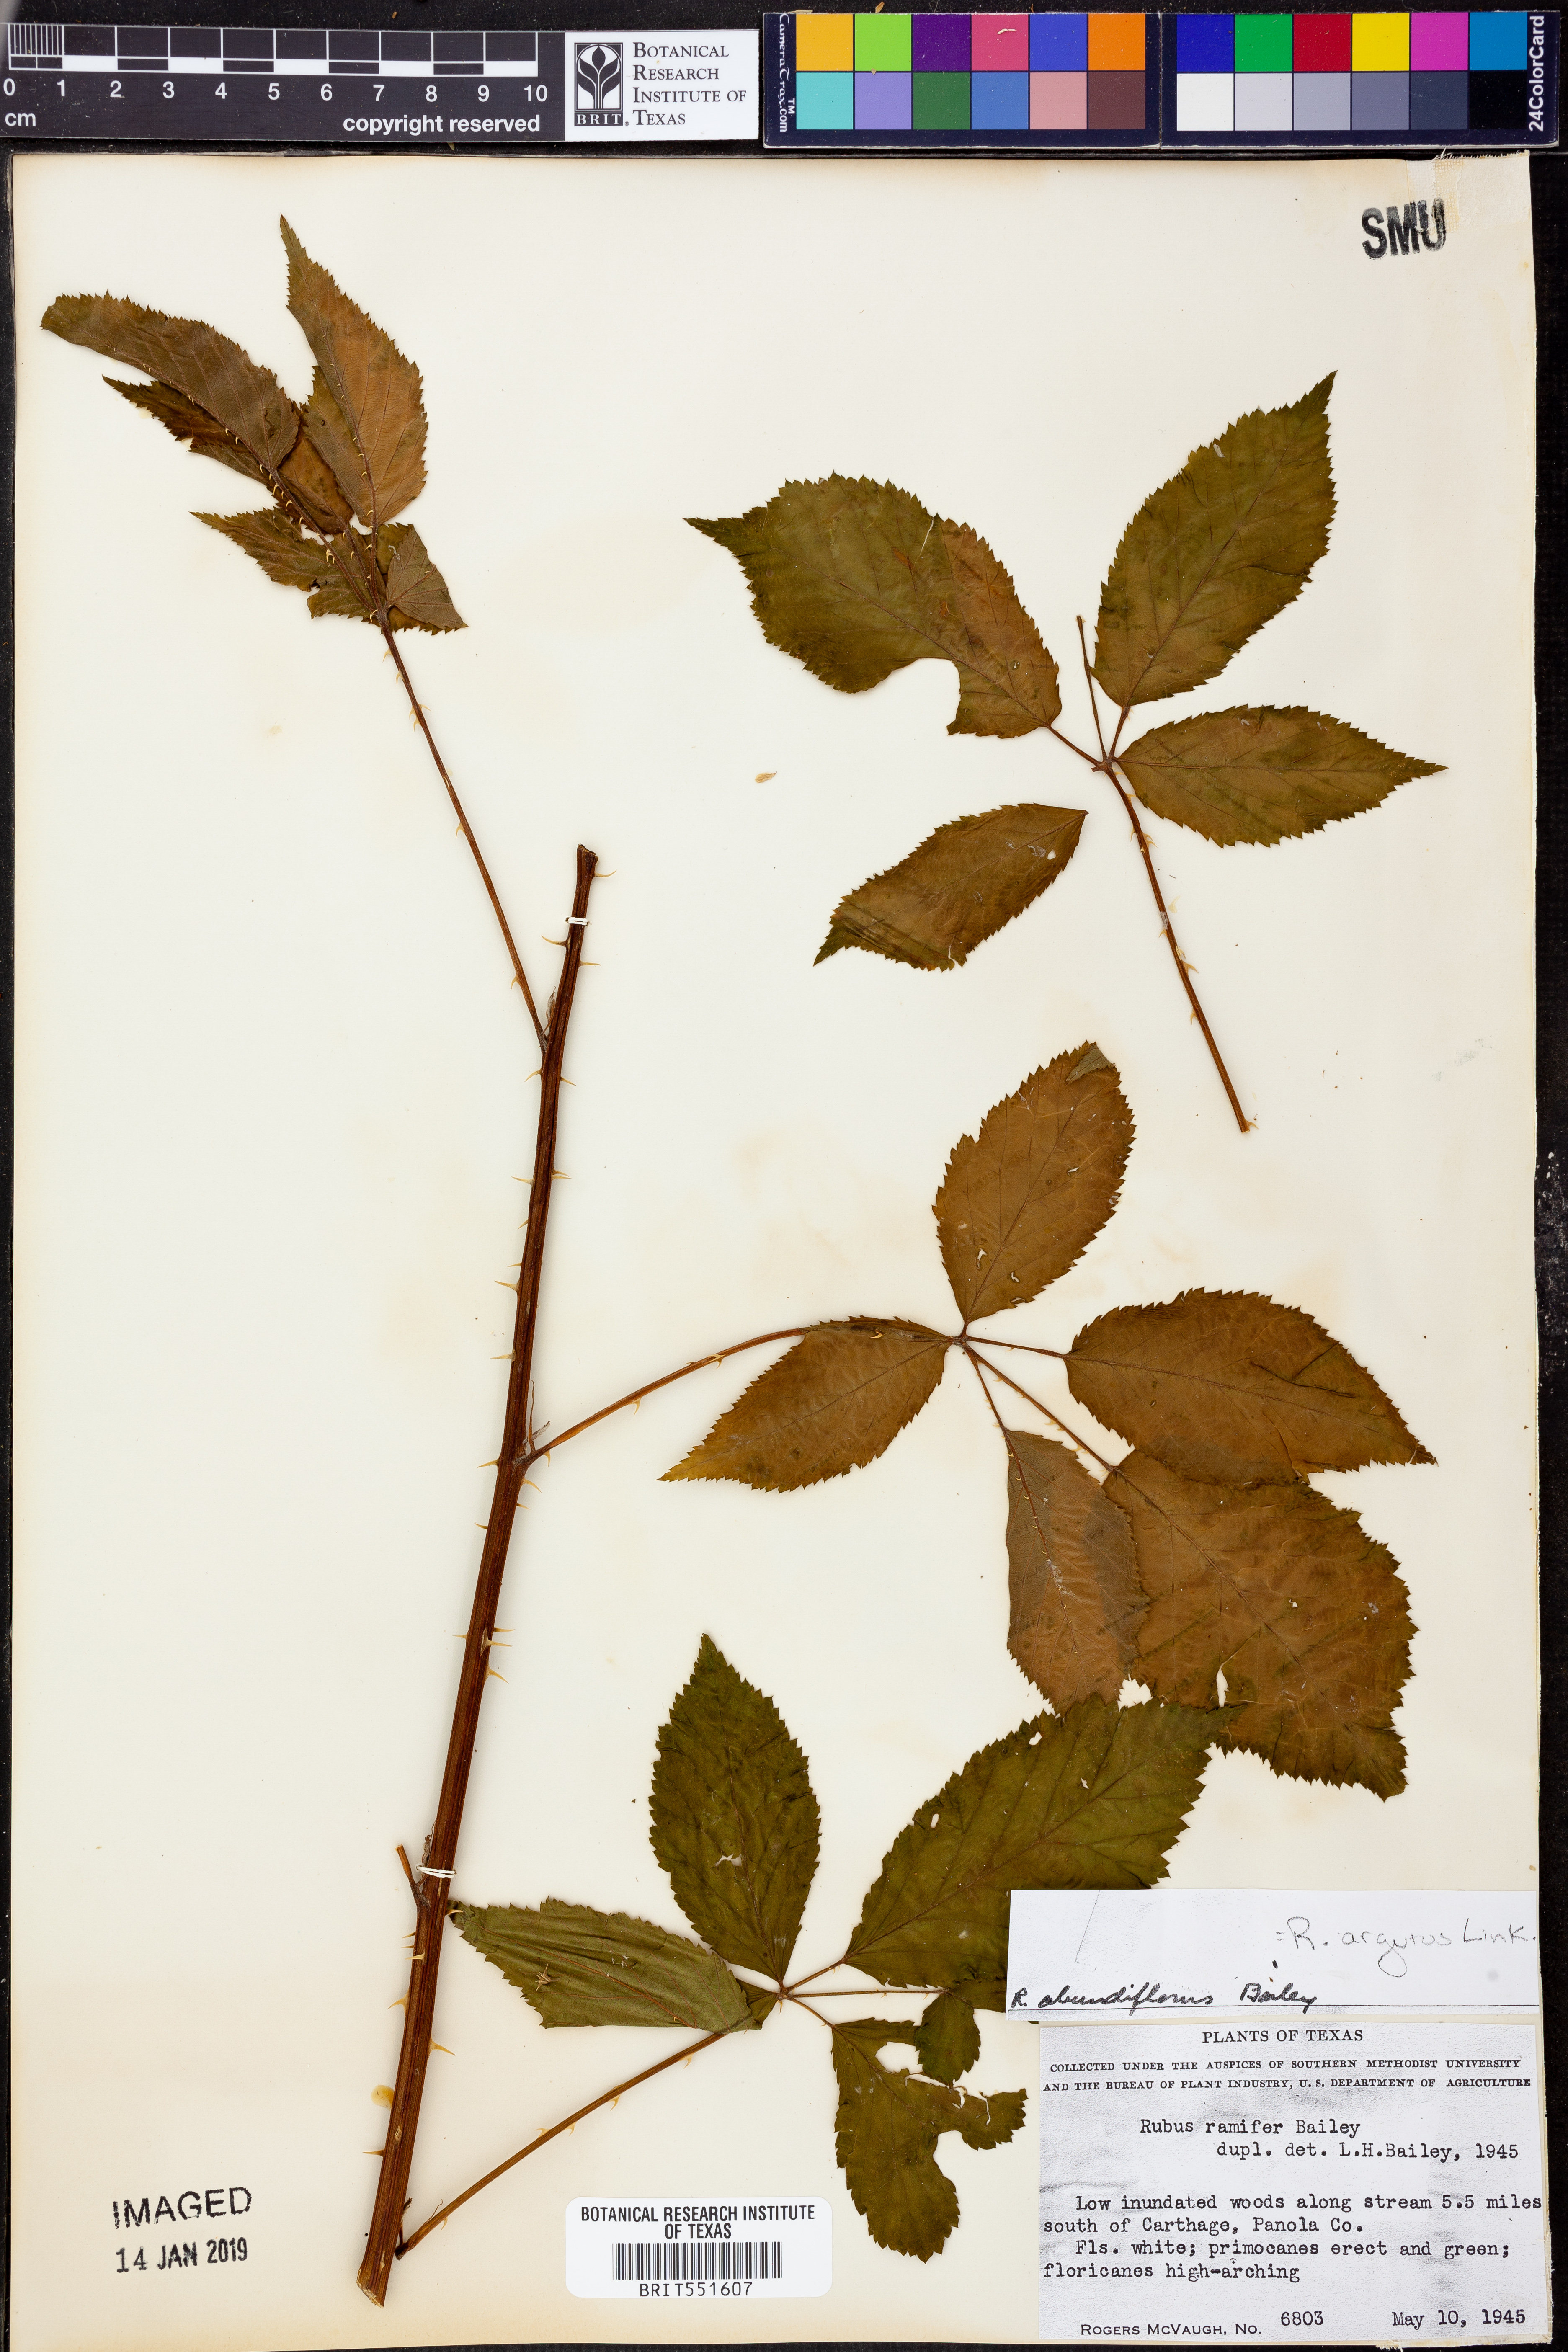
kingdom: Plantae
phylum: Tracheophyta
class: Magnoliopsida
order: Rosales
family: Rosaceae
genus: Rubus
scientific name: Rubus argutus
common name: Sawtooth blackberry
